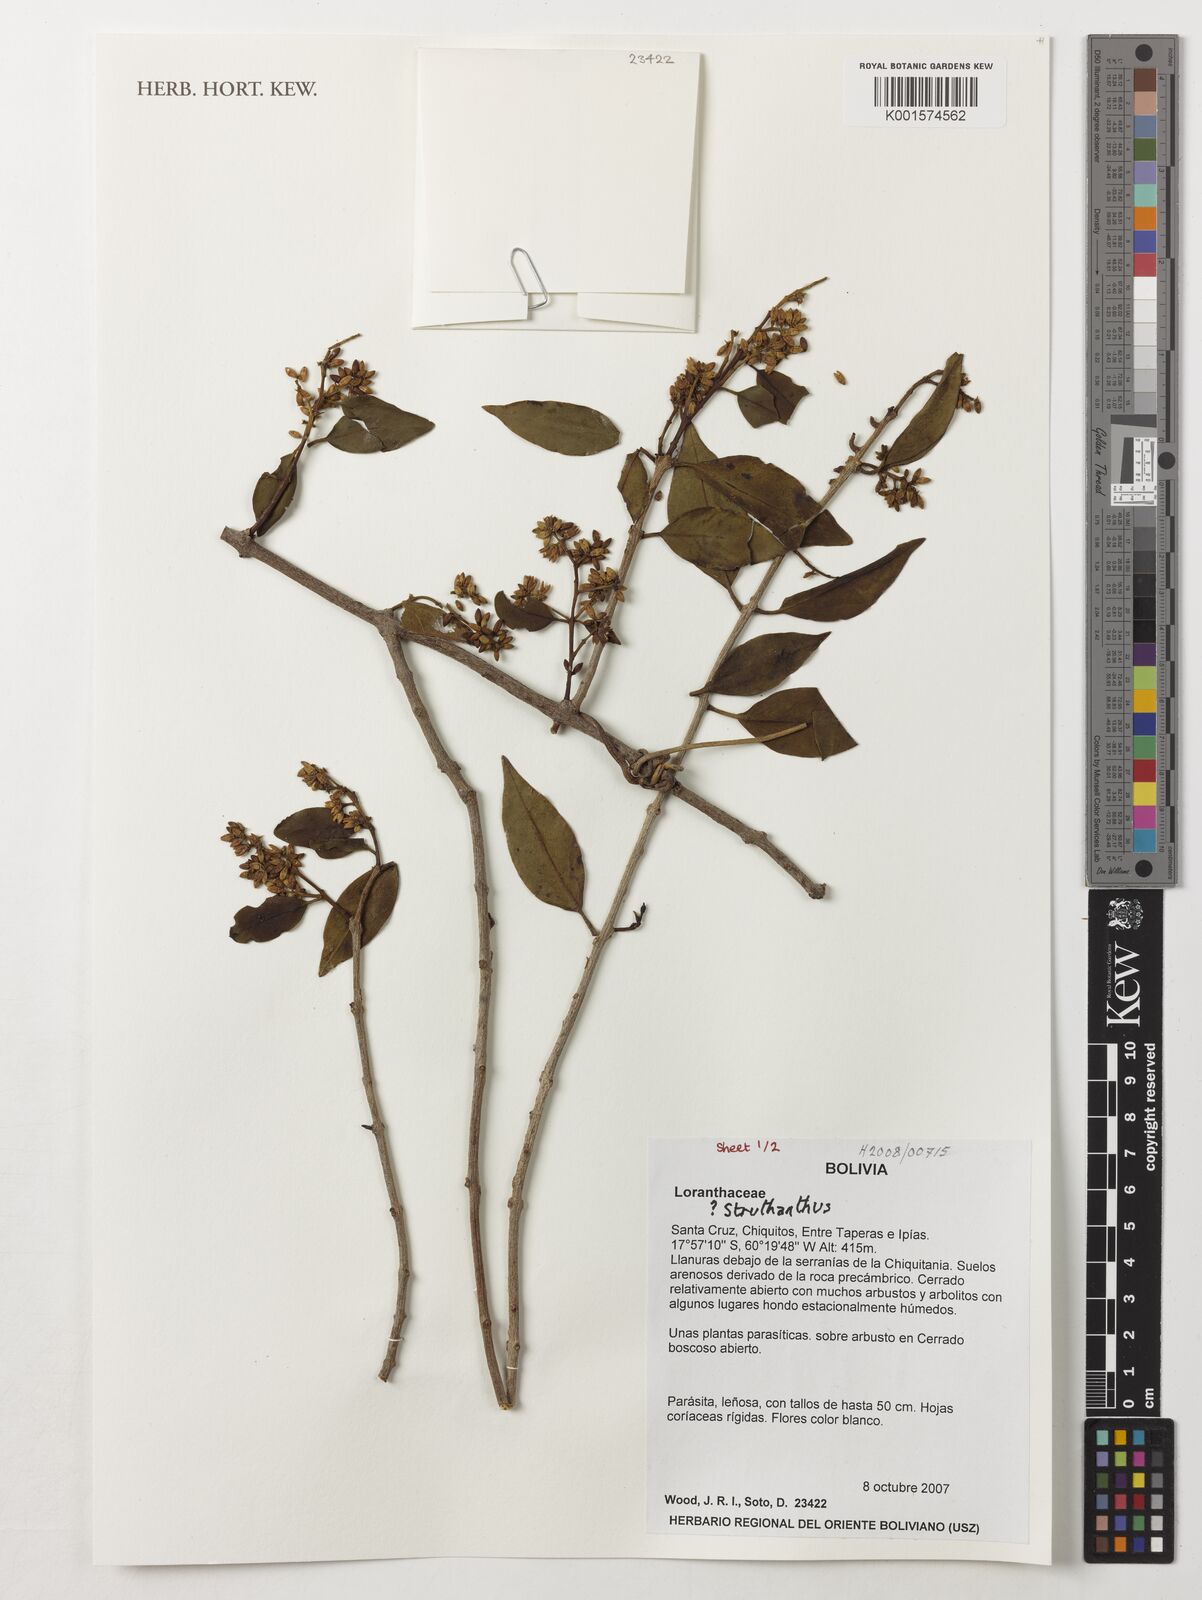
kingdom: Plantae
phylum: Tracheophyta
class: Magnoliopsida
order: Santalales
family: Loranthaceae
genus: Struthanthus
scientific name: Struthanthus
